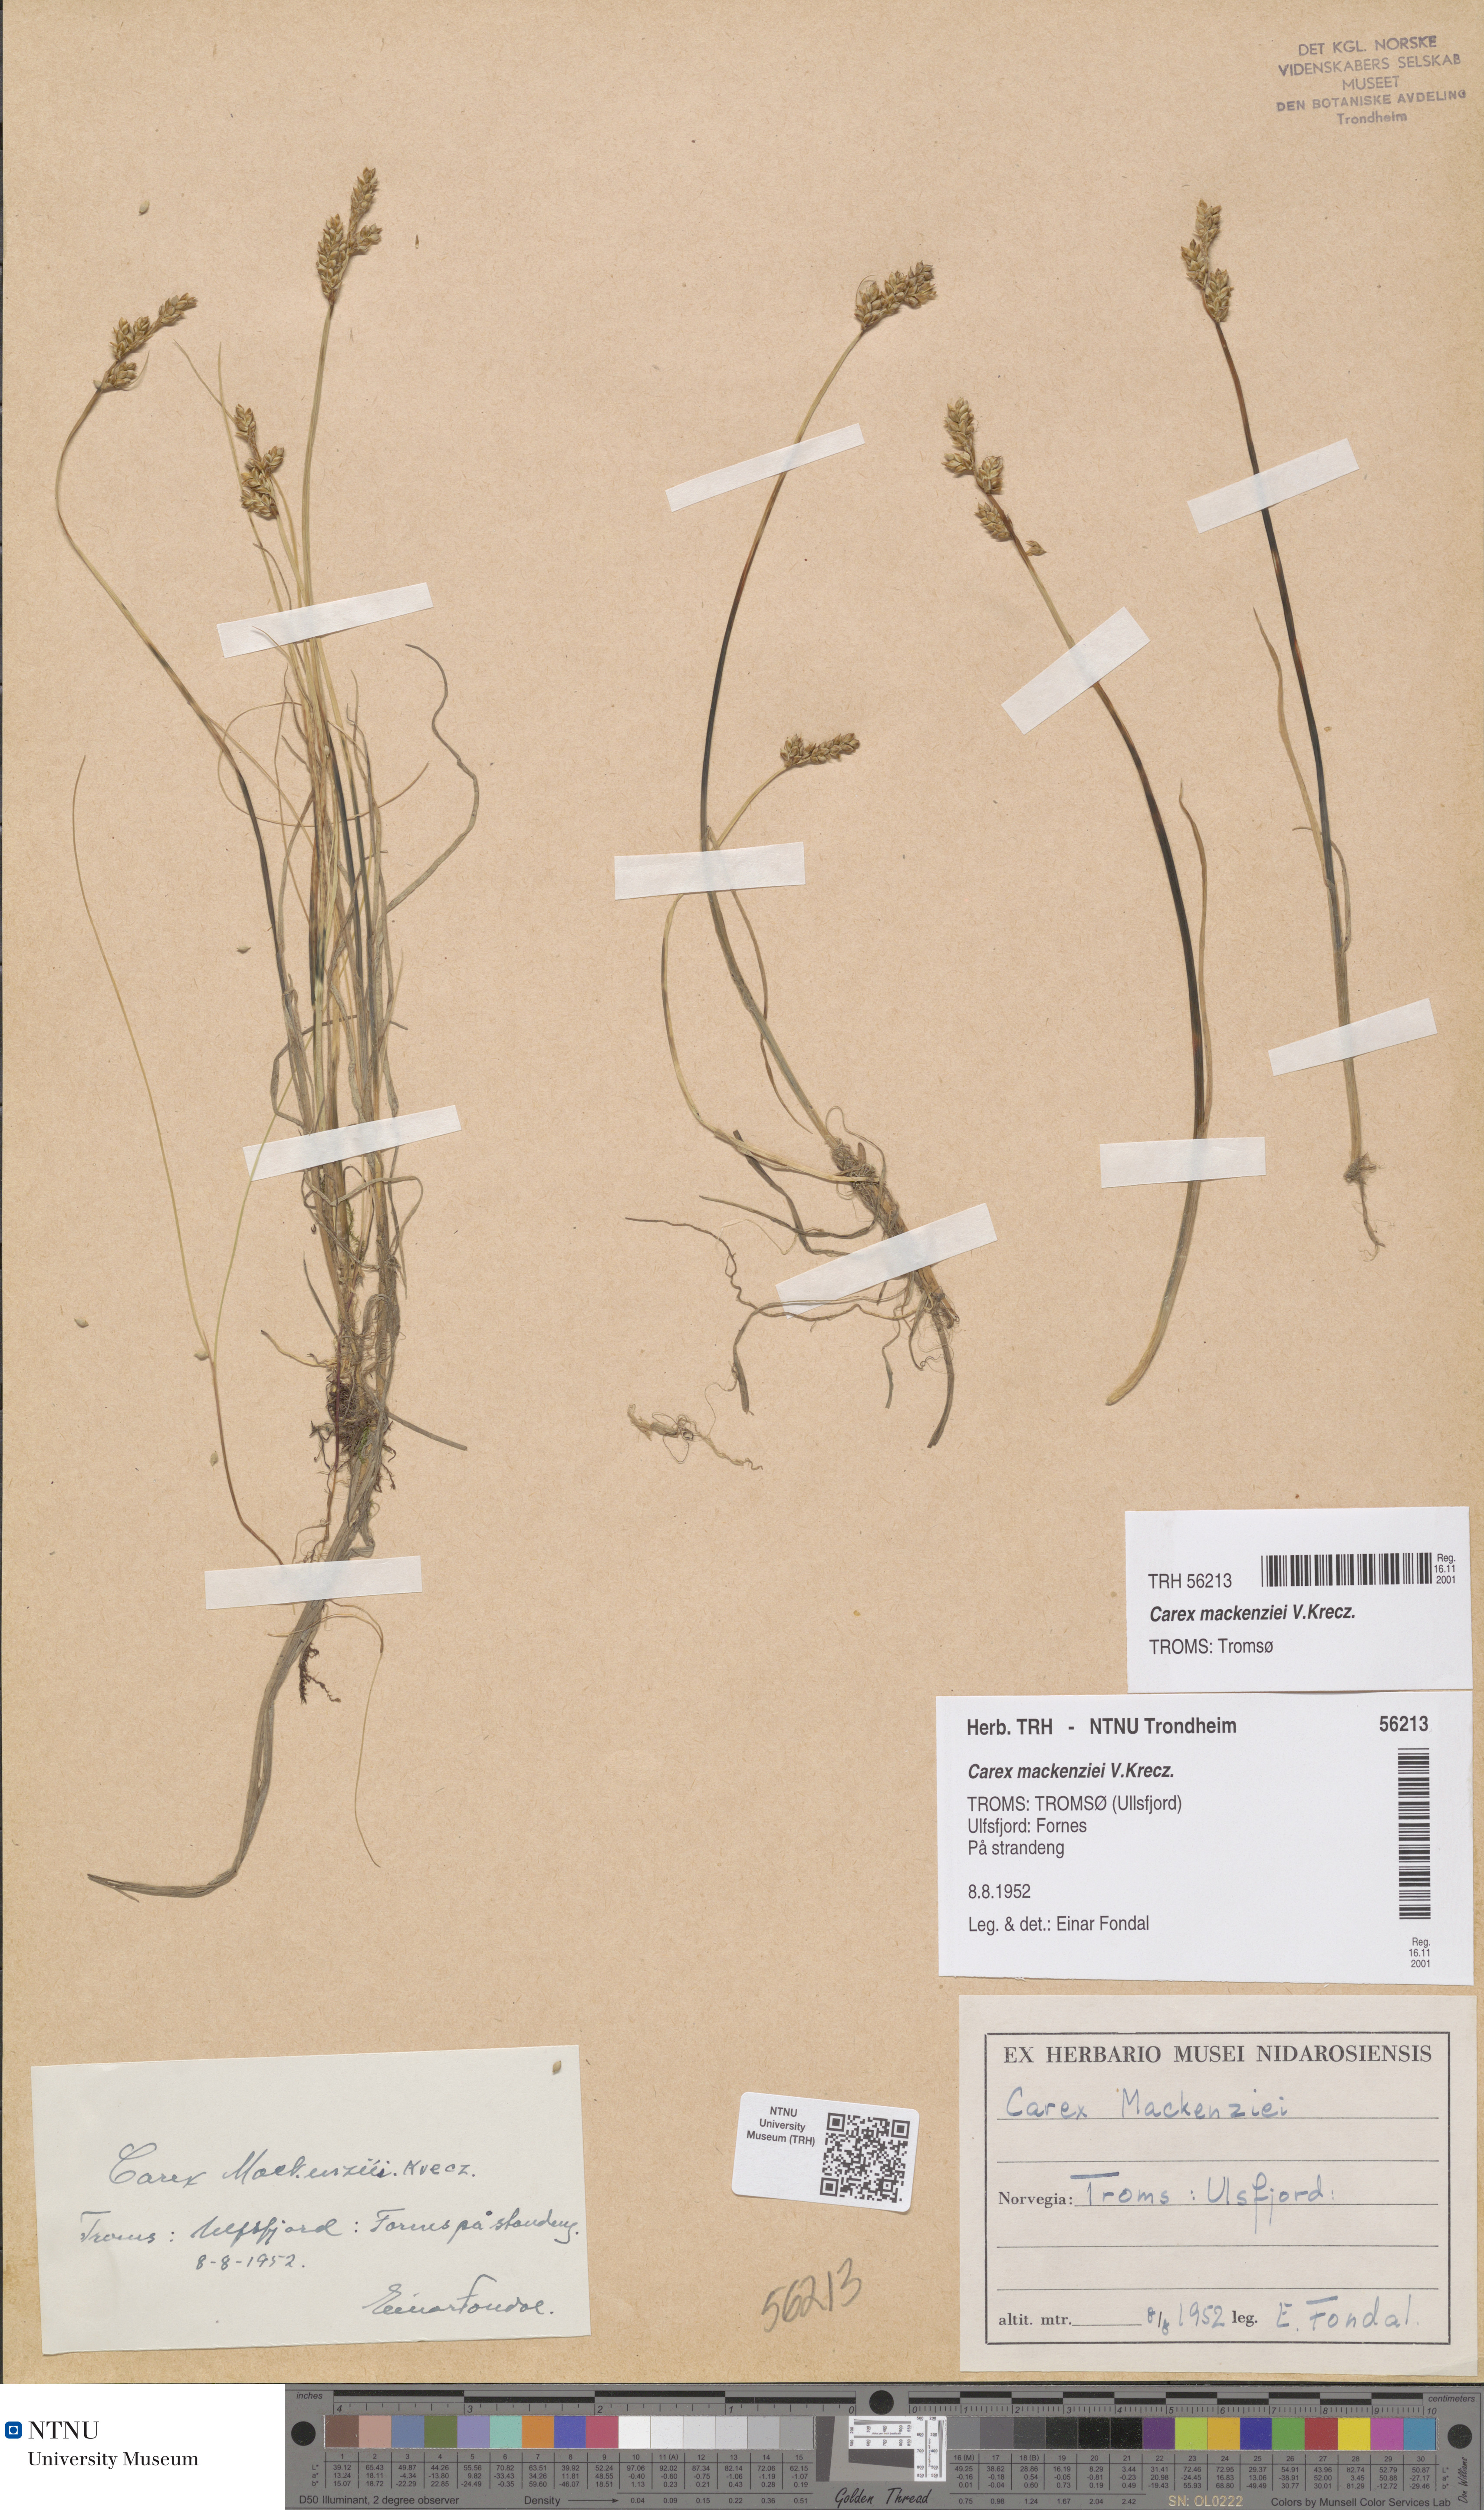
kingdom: Plantae
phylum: Tracheophyta
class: Liliopsida
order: Poales
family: Cyperaceae
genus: Carex
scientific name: Carex mackenziei
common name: Mackenzie's sedge
